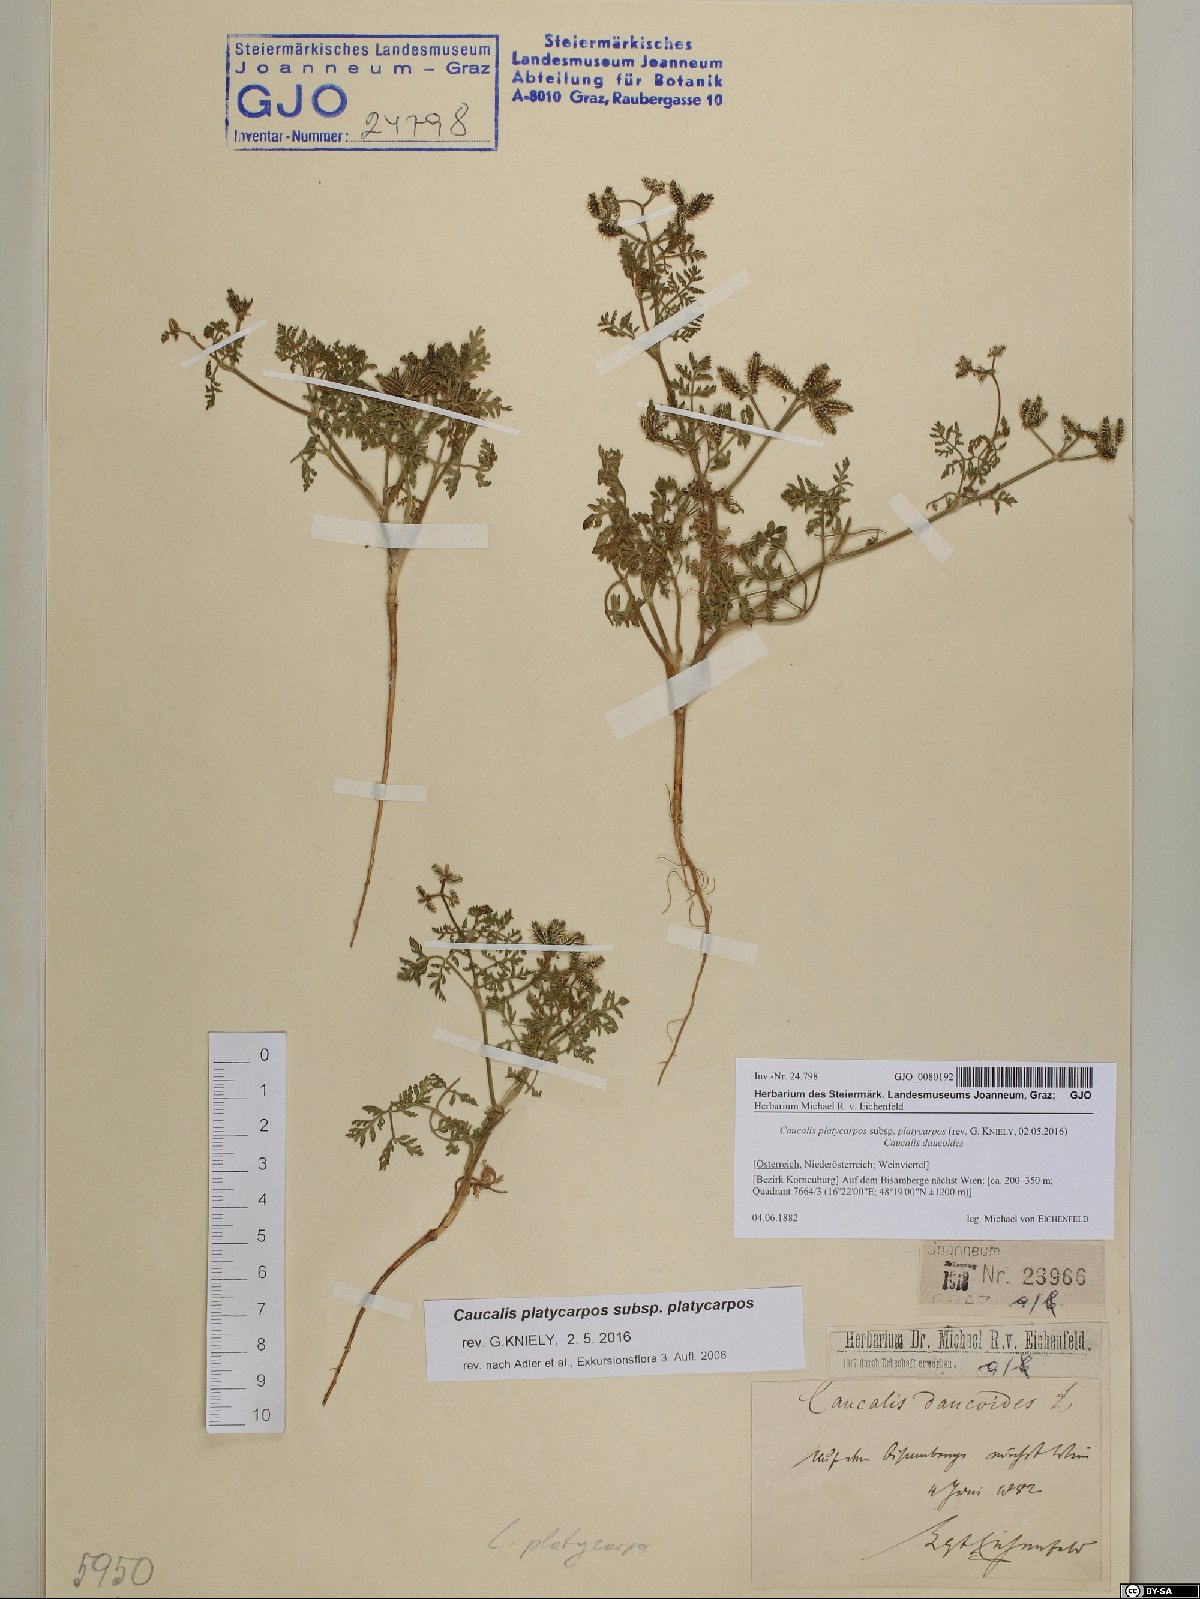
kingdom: Plantae
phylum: Tracheophyta
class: Magnoliopsida
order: Apiales
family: Apiaceae
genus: Caucalis
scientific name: Caucalis platycarpos
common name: Small bur-parsley
